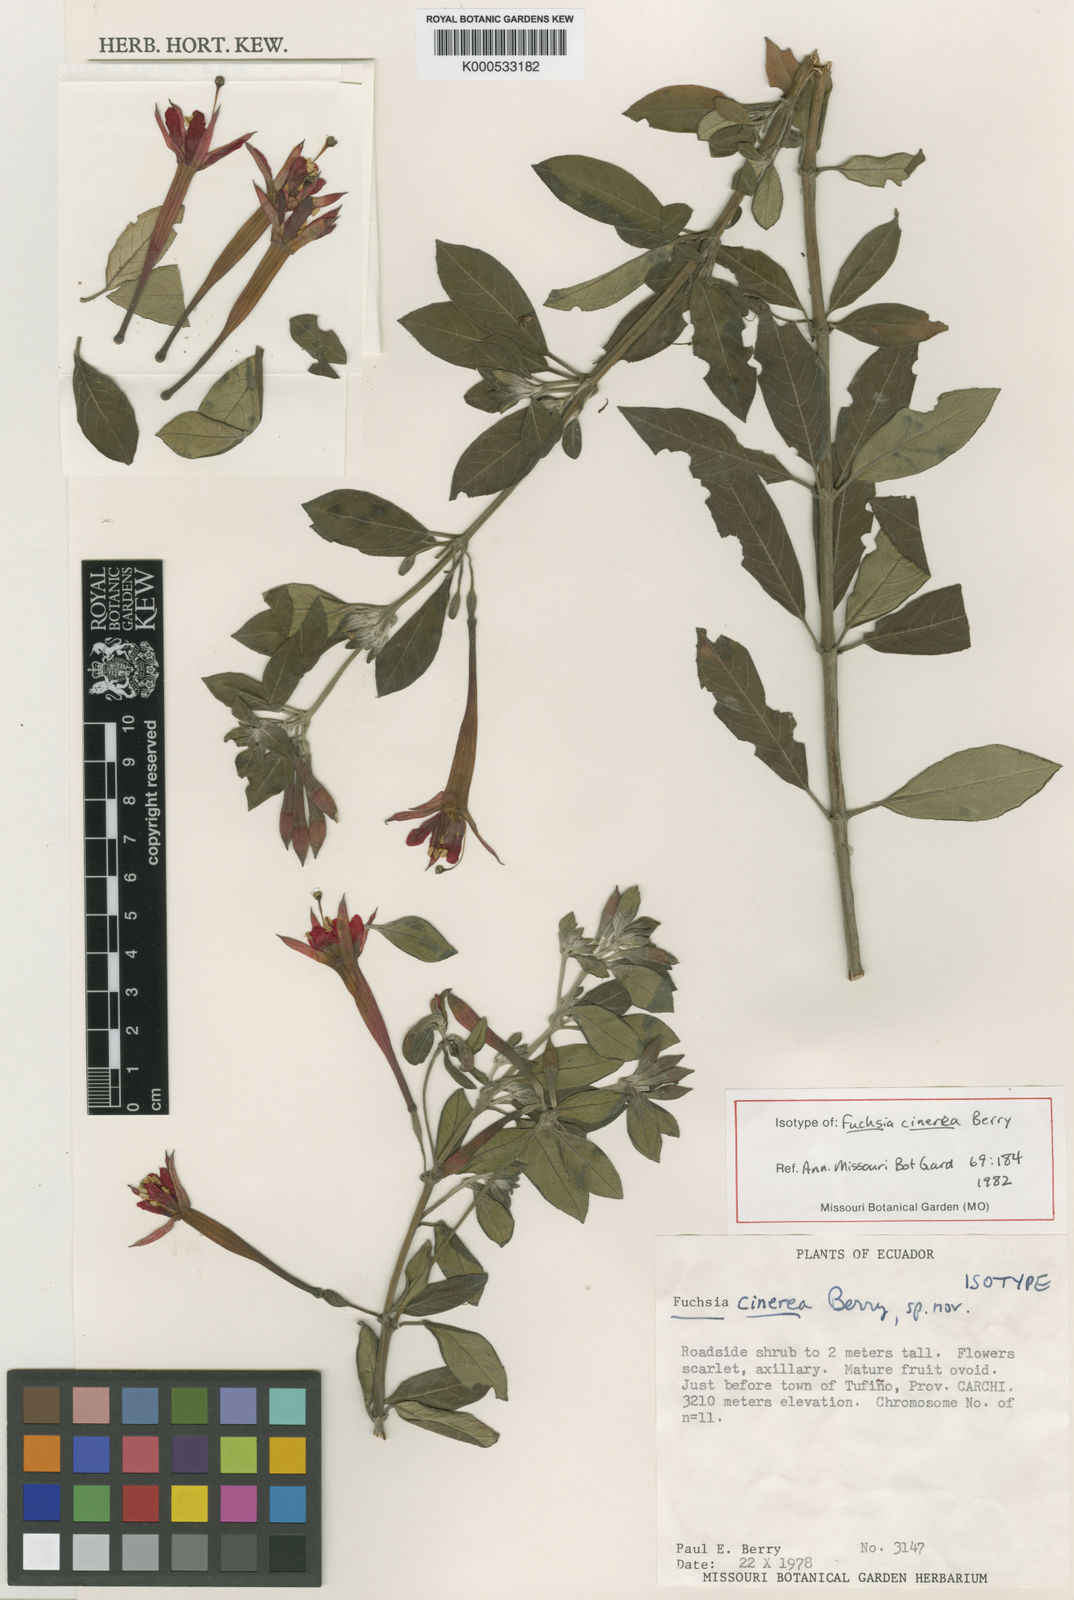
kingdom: Plantae
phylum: Tracheophyta
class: Magnoliopsida
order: Myrtales
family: Onagraceae
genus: Fuchsia
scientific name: Fuchsia cinerea
